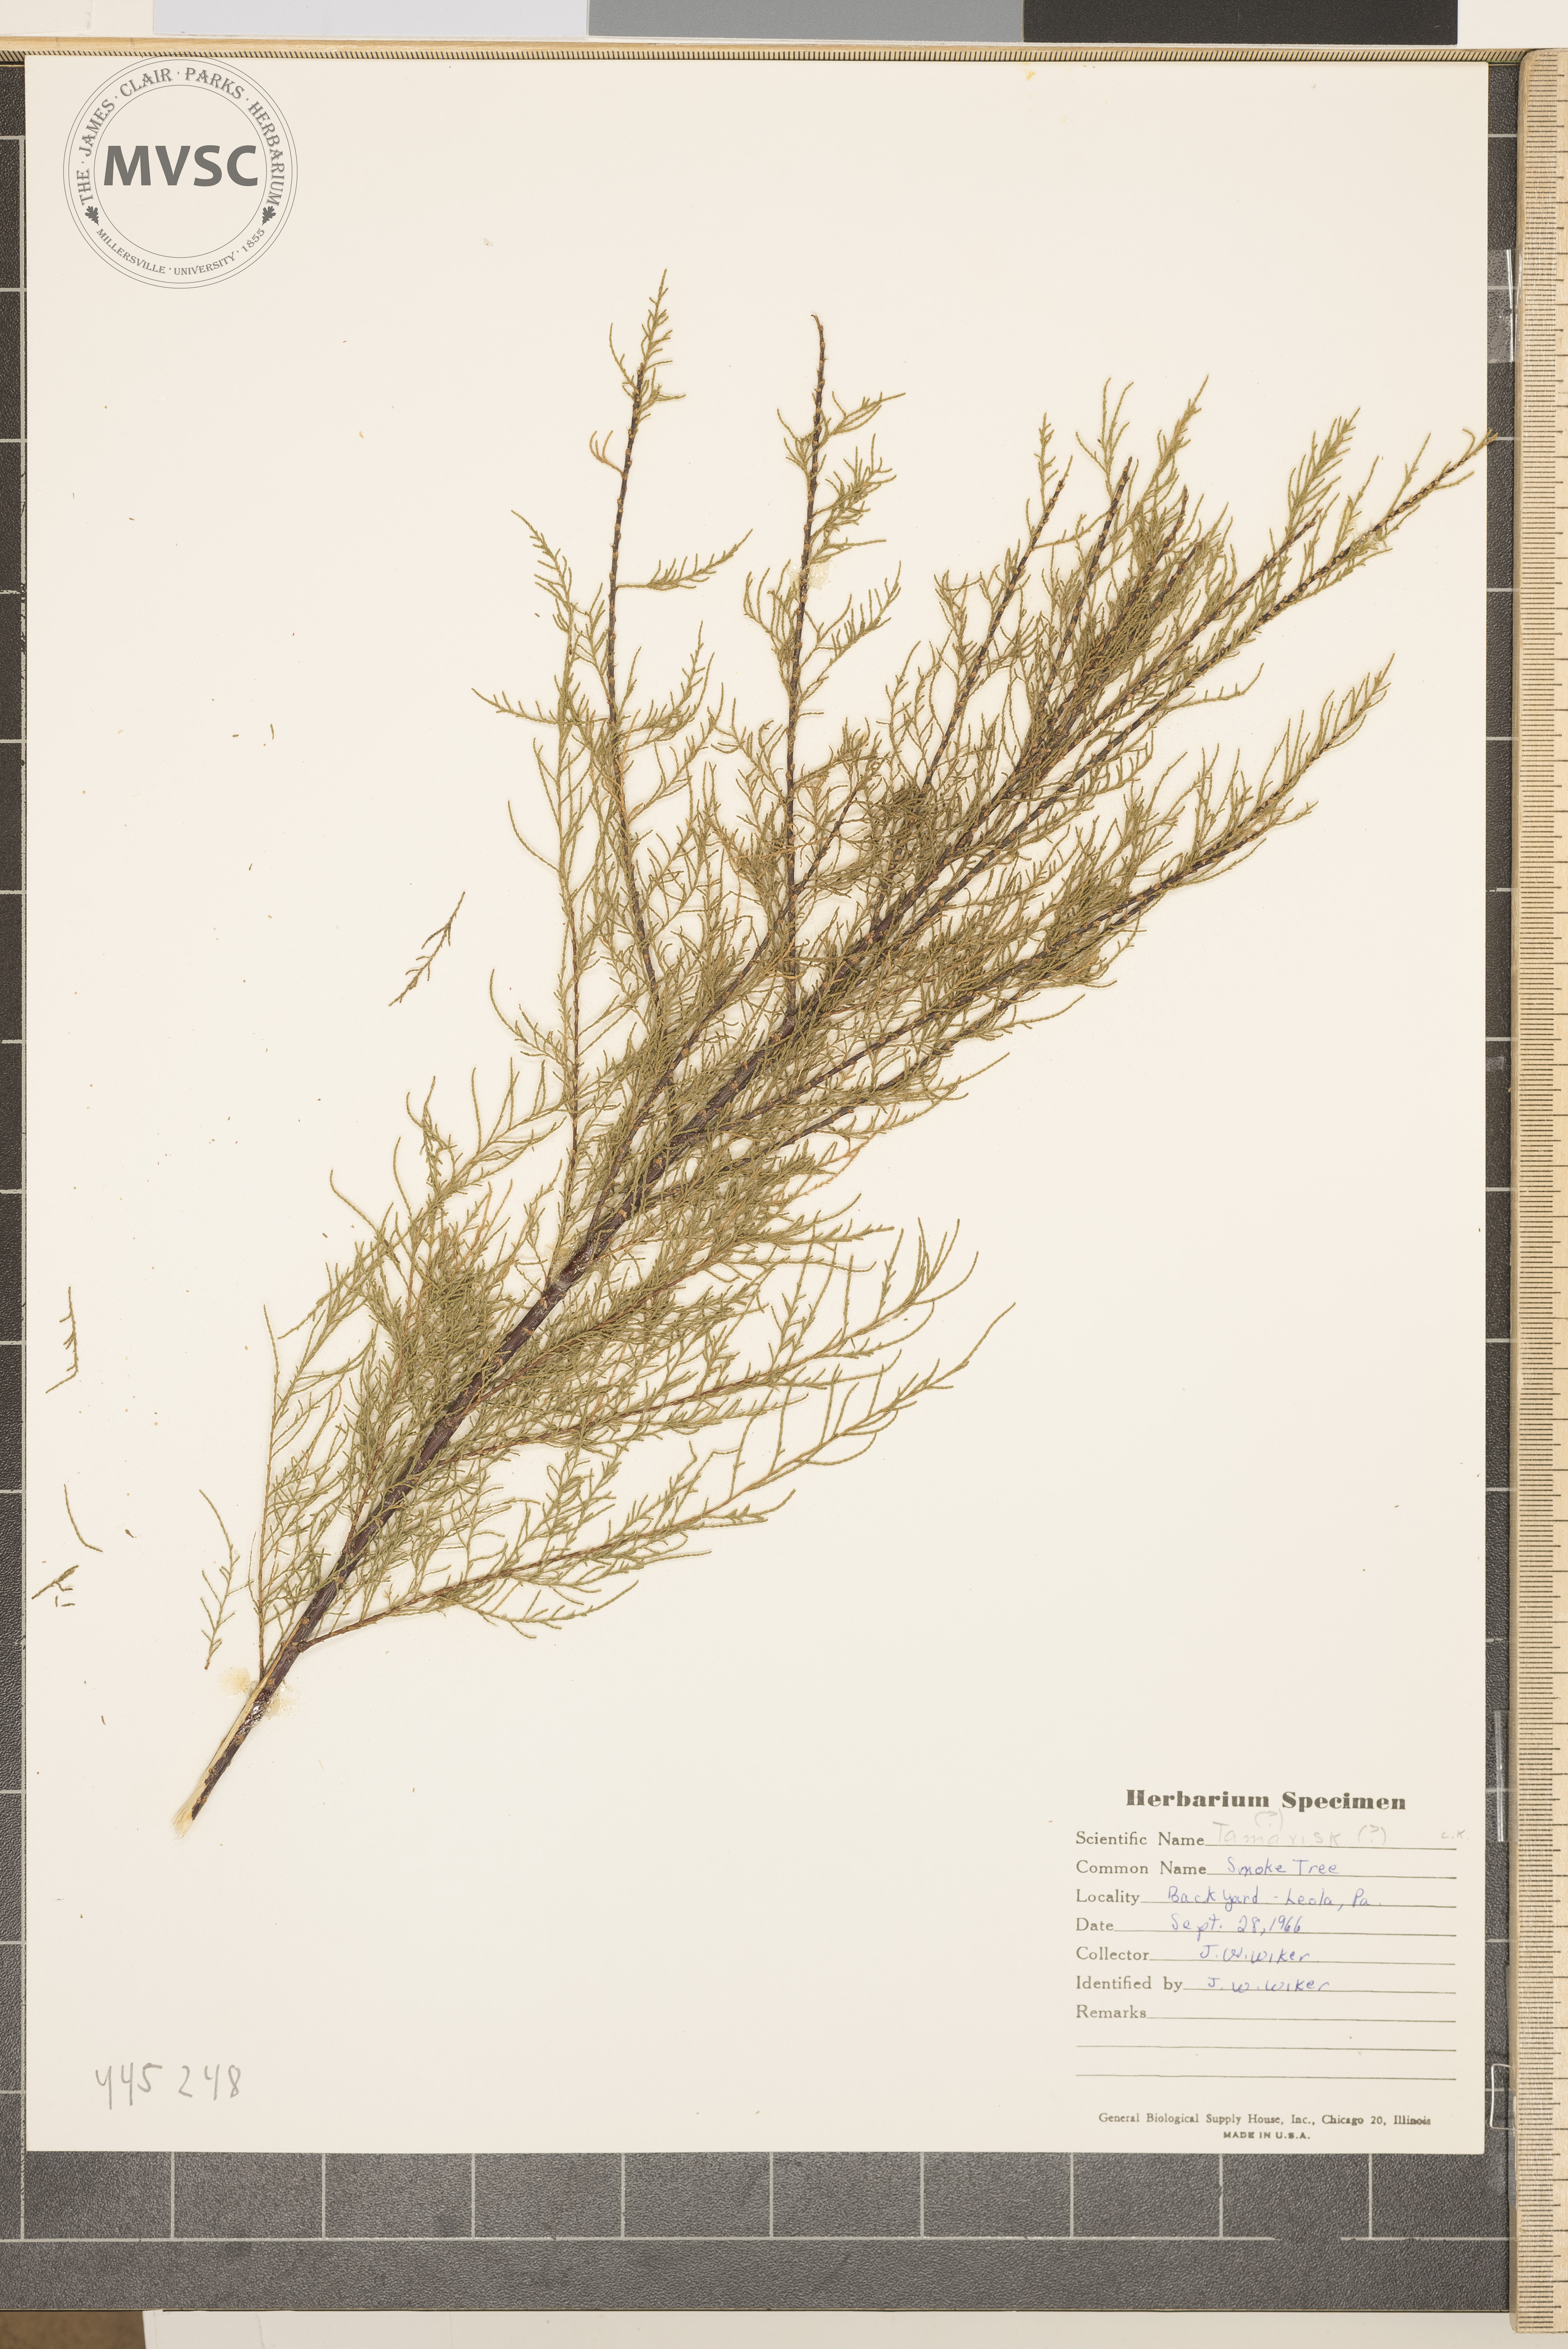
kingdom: Plantae
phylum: Tracheophyta
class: Magnoliopsida
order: Caryophyllales
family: Tamaricaceae
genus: Tamarix
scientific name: Tamarix
